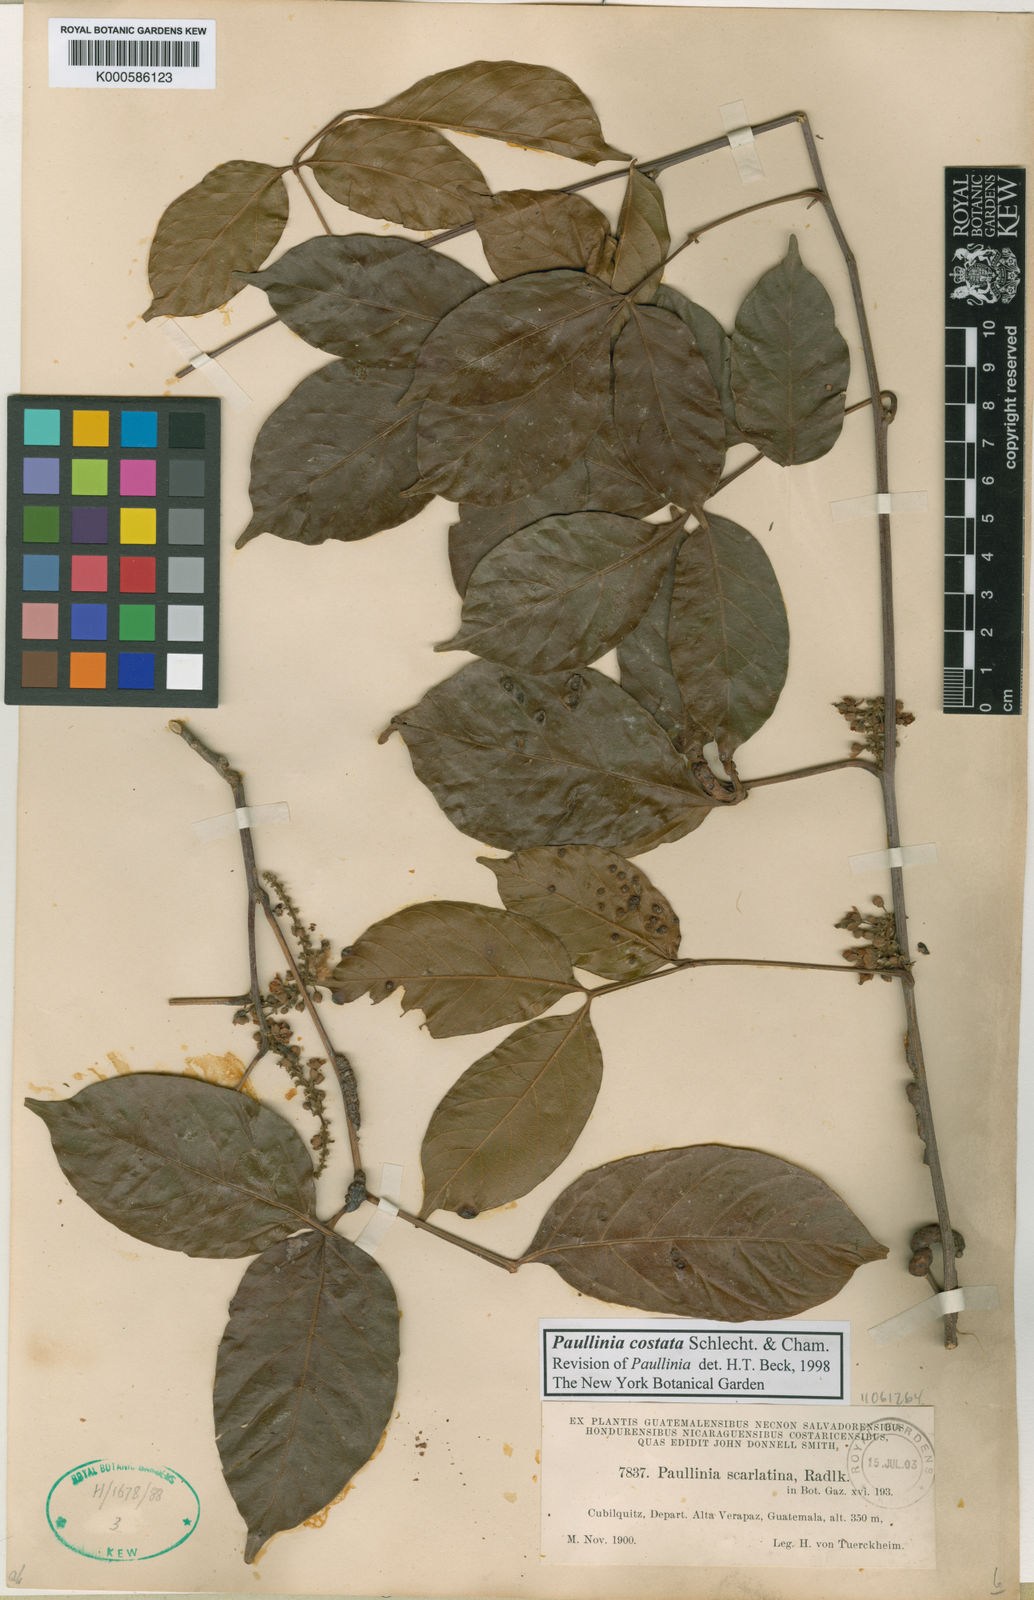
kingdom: Plantae
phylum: Tracheophyta
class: Magnoliopsida
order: Sapindales
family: Sapindaceae
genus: Paullinia
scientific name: Paullinia costata
